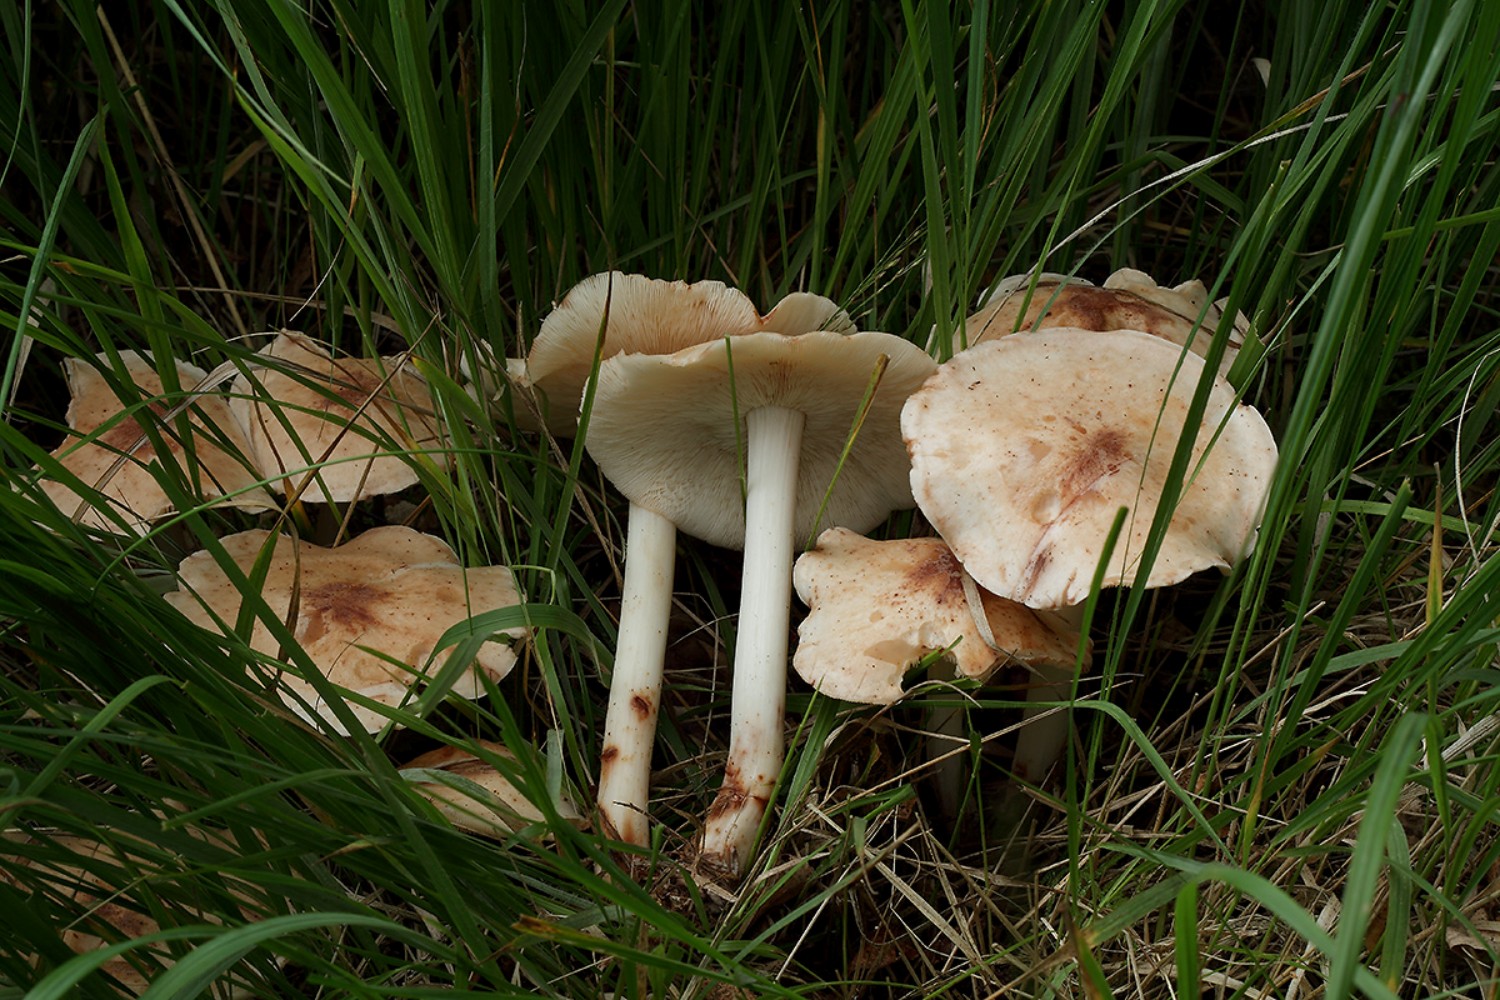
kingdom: Fungi
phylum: Basidiomycota
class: Agaricomycetes
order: Agaricales
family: Omphalotaceae
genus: Rhodocollybia
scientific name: Rhodocollybia maculata
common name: plettet fladhat
